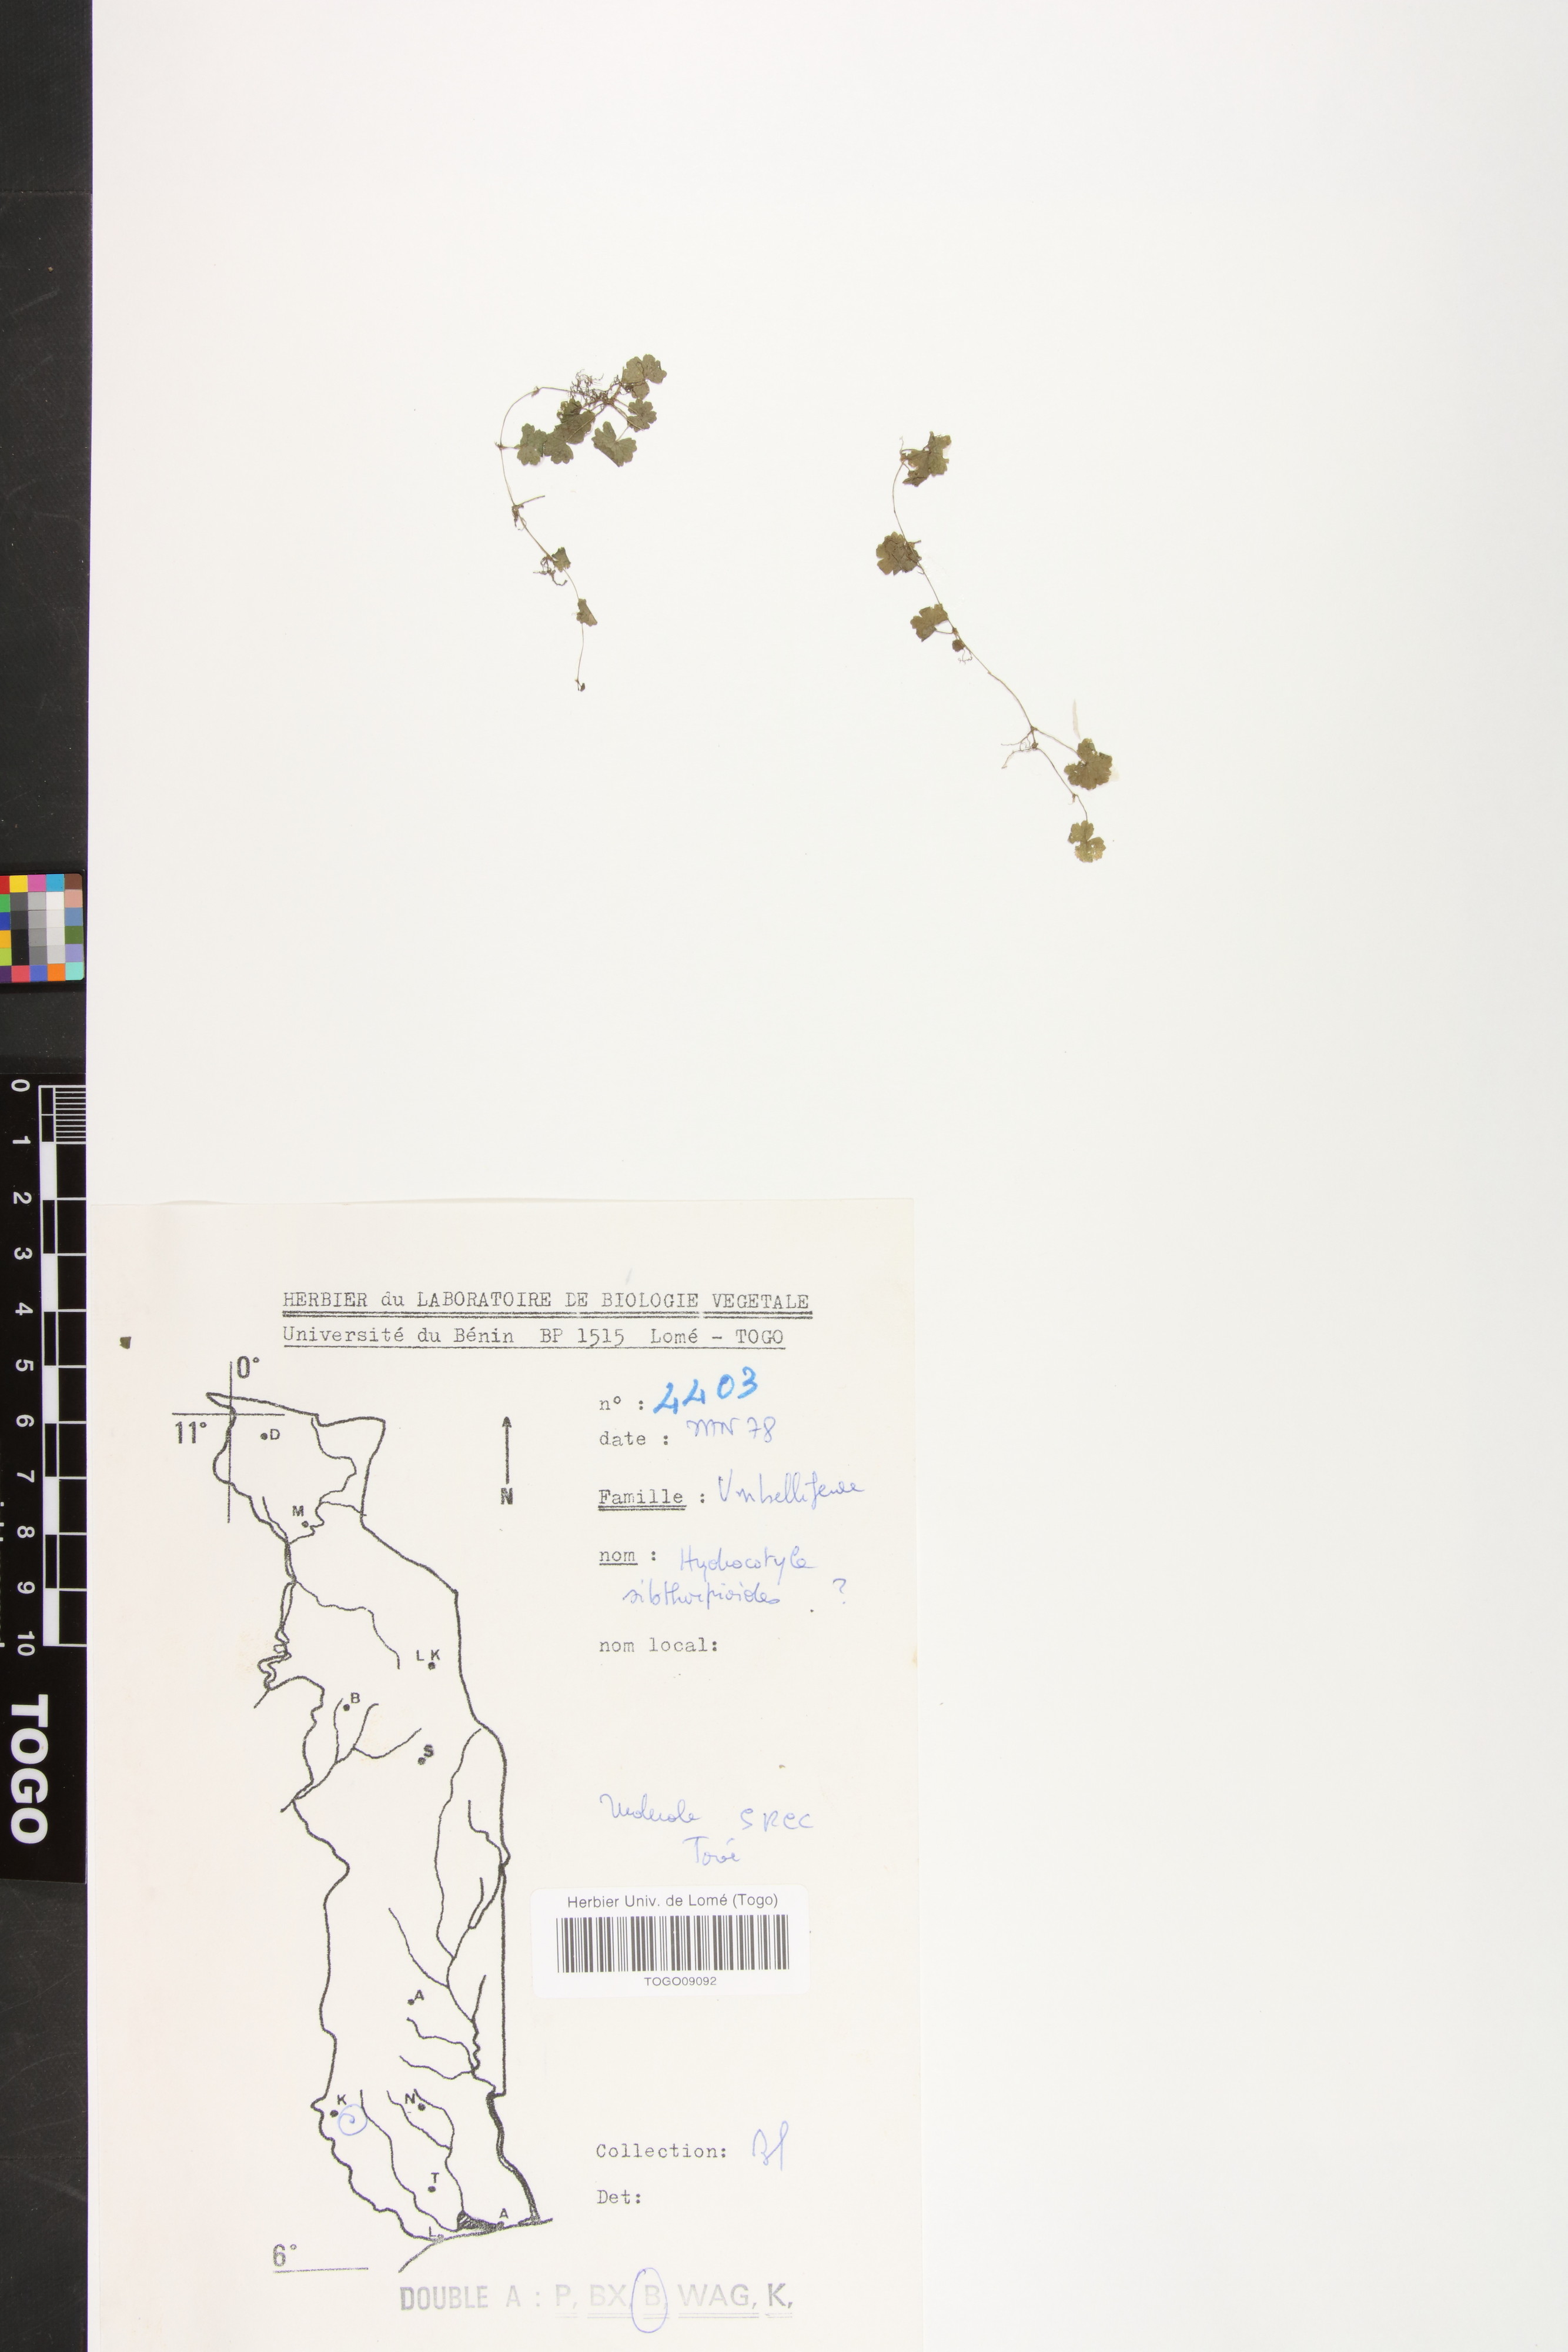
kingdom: Plantae
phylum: Tracheophyta
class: Magnoliopsida
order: Apiales
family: Araliaceae
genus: Hydrocotyle
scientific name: Hydrocotyle sibthorpioides
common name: Lawn marshpennywort
